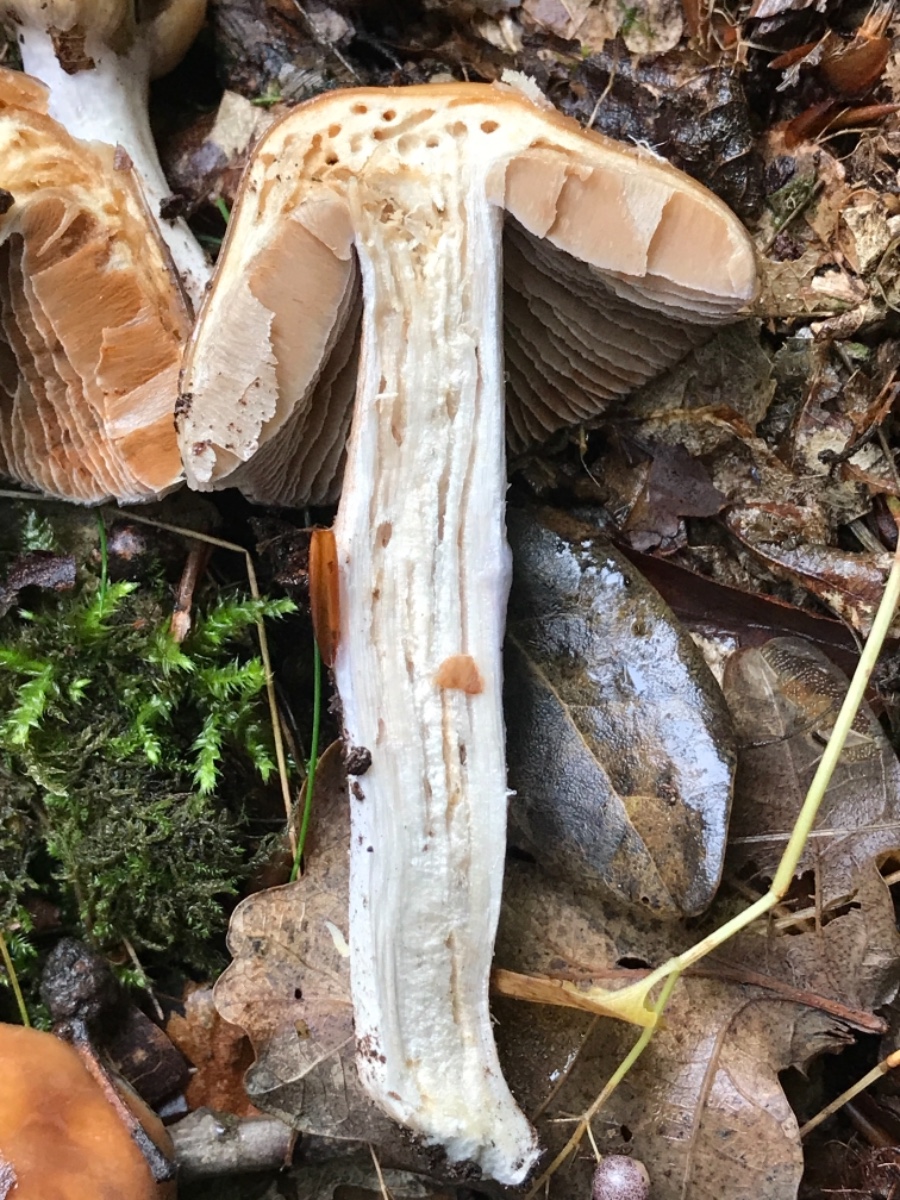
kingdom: Fungi
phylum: Basidiomycota
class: Agaricomycetes
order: Agaricales
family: Cortinariaceae
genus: Cortinarius
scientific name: Cortinarius elatior
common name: høj slørhat
